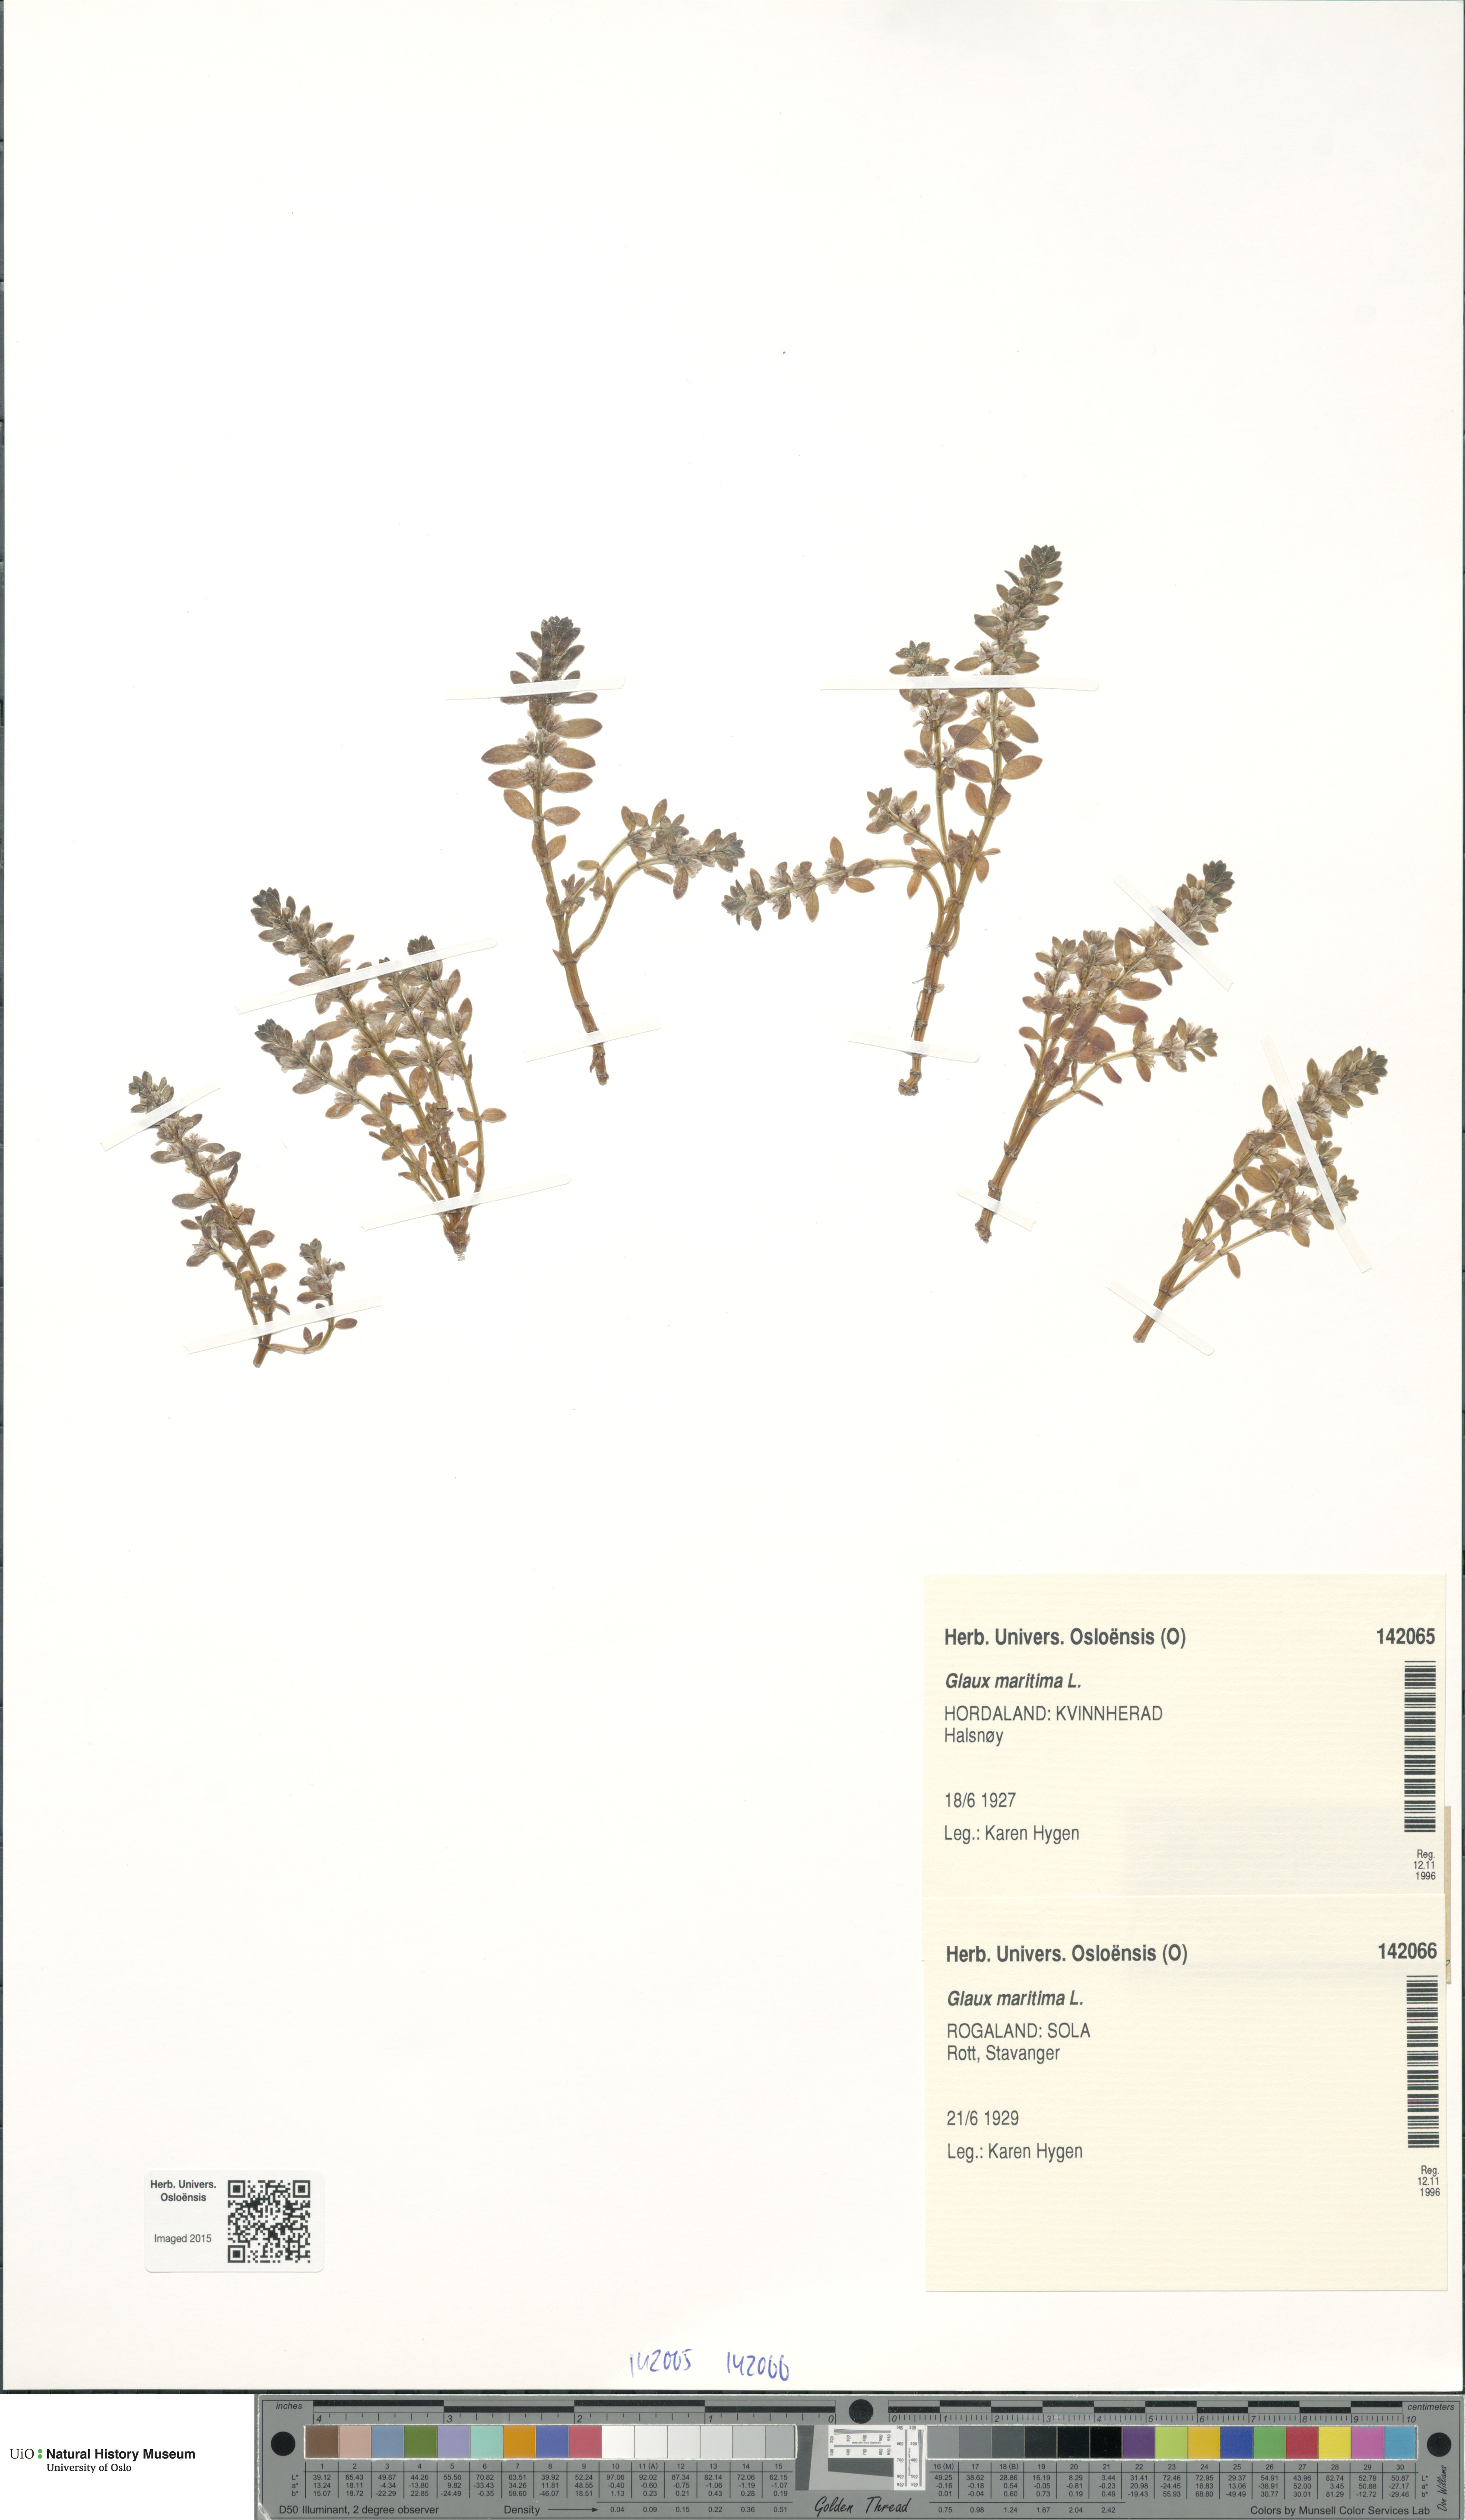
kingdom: Plantae
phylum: Tracheophyta
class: Magnoliopsida
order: Ericales
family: Primulaceae
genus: Lysimachia
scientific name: Lysimachia maritima
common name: Sea milkwort
